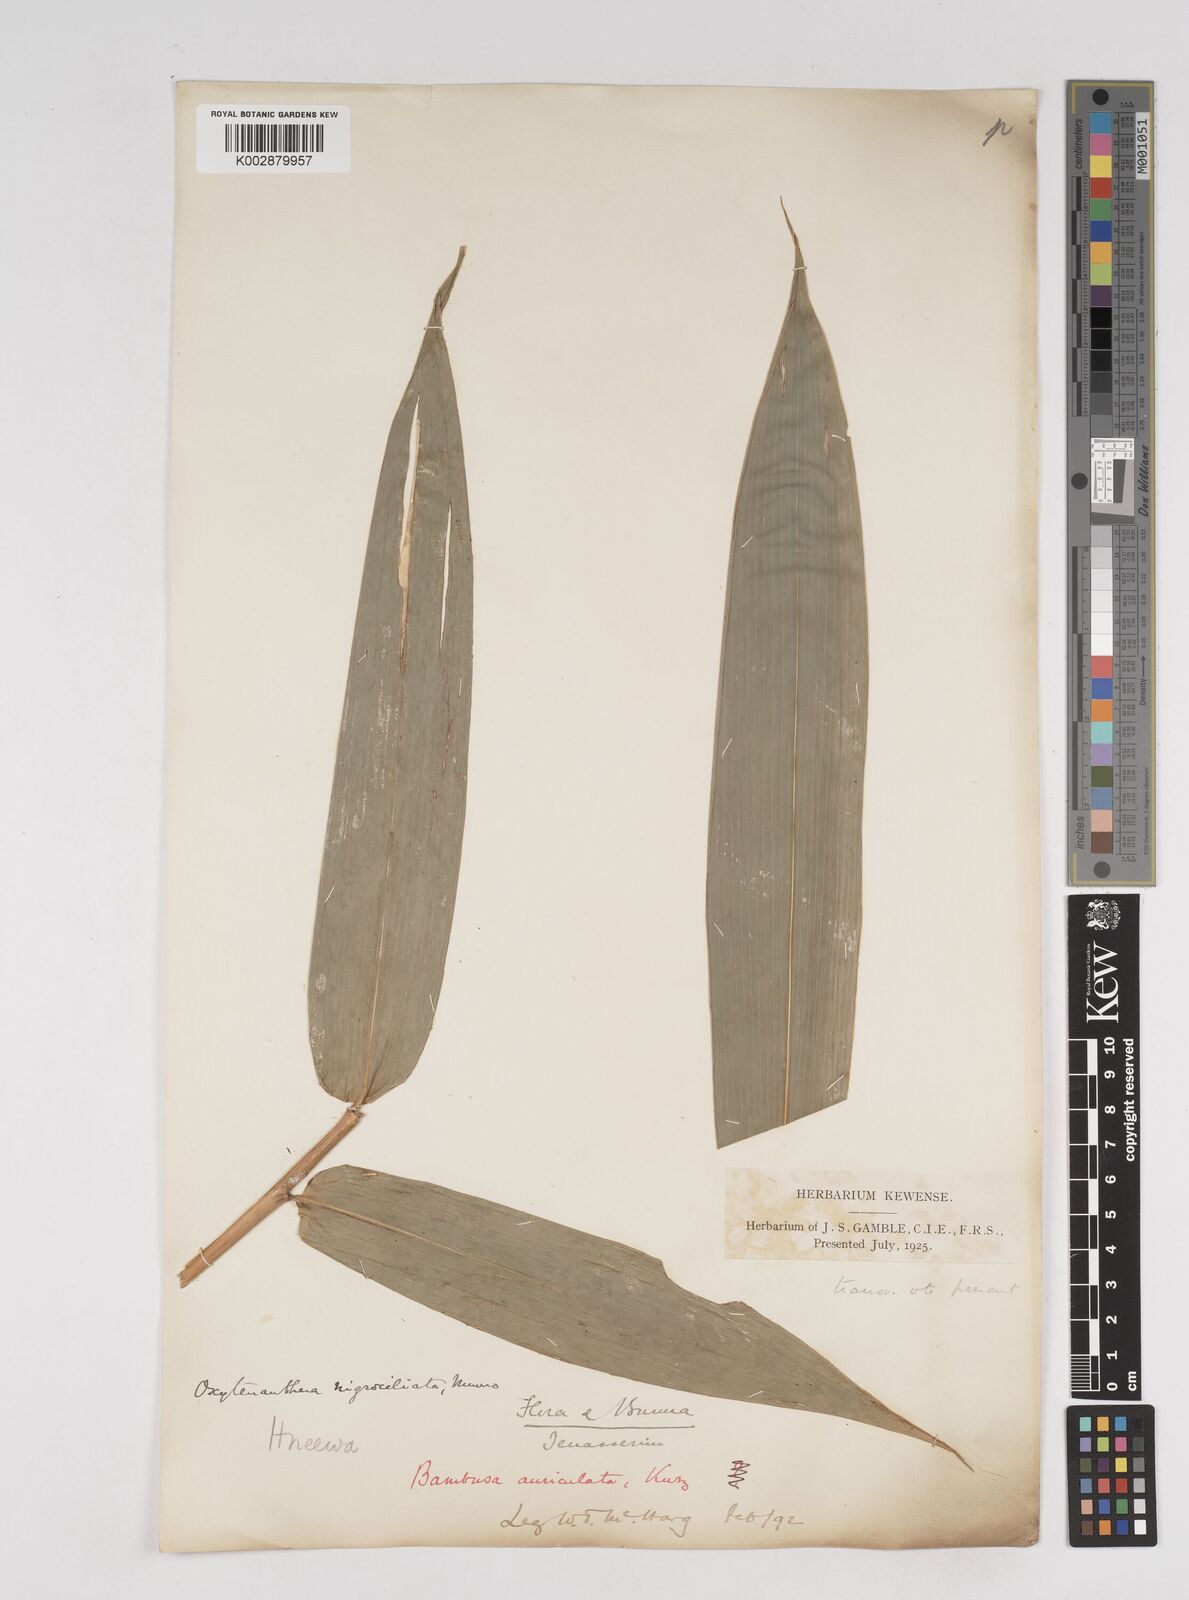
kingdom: Plantae
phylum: Tracheophyta
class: Liliopsida
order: Poales
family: Poaceae
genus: Gigantochloa
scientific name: Gigantochloa nigrociliata
